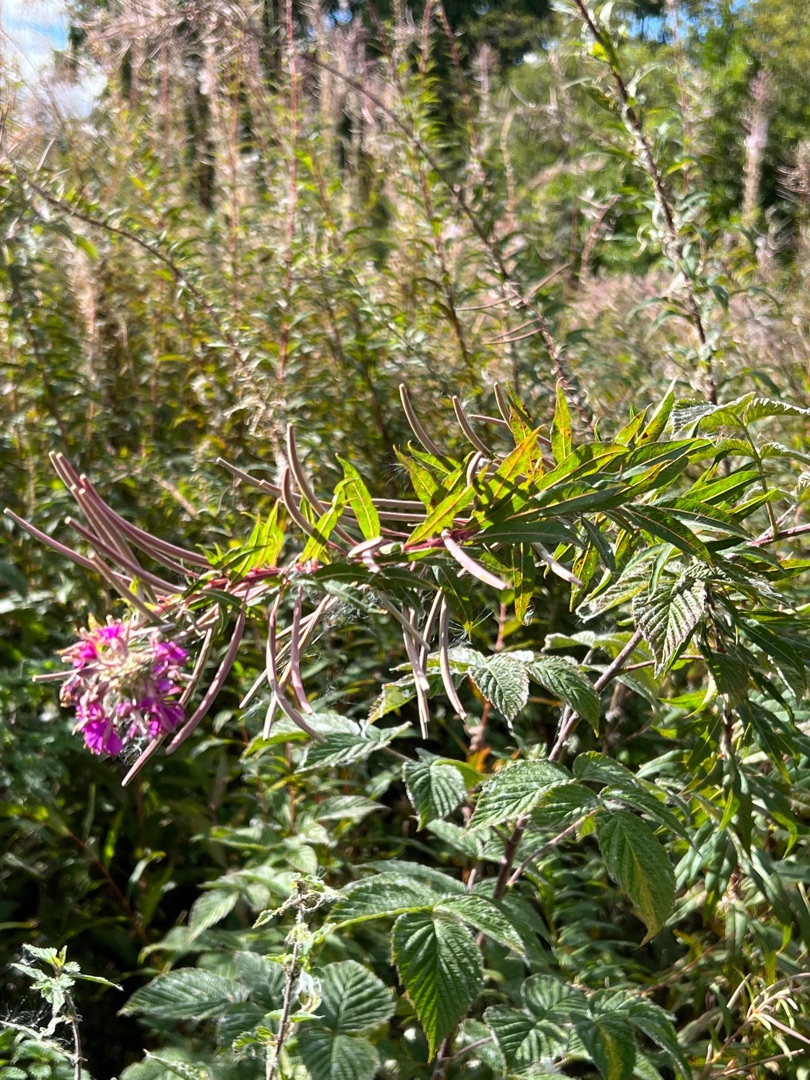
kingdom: Plantae
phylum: Tracheophyta
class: Magnoliopsida
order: Myrtales
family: Onagraceae
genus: Chamaenerion
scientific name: Chamaenerion angustifolium
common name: Gederams
